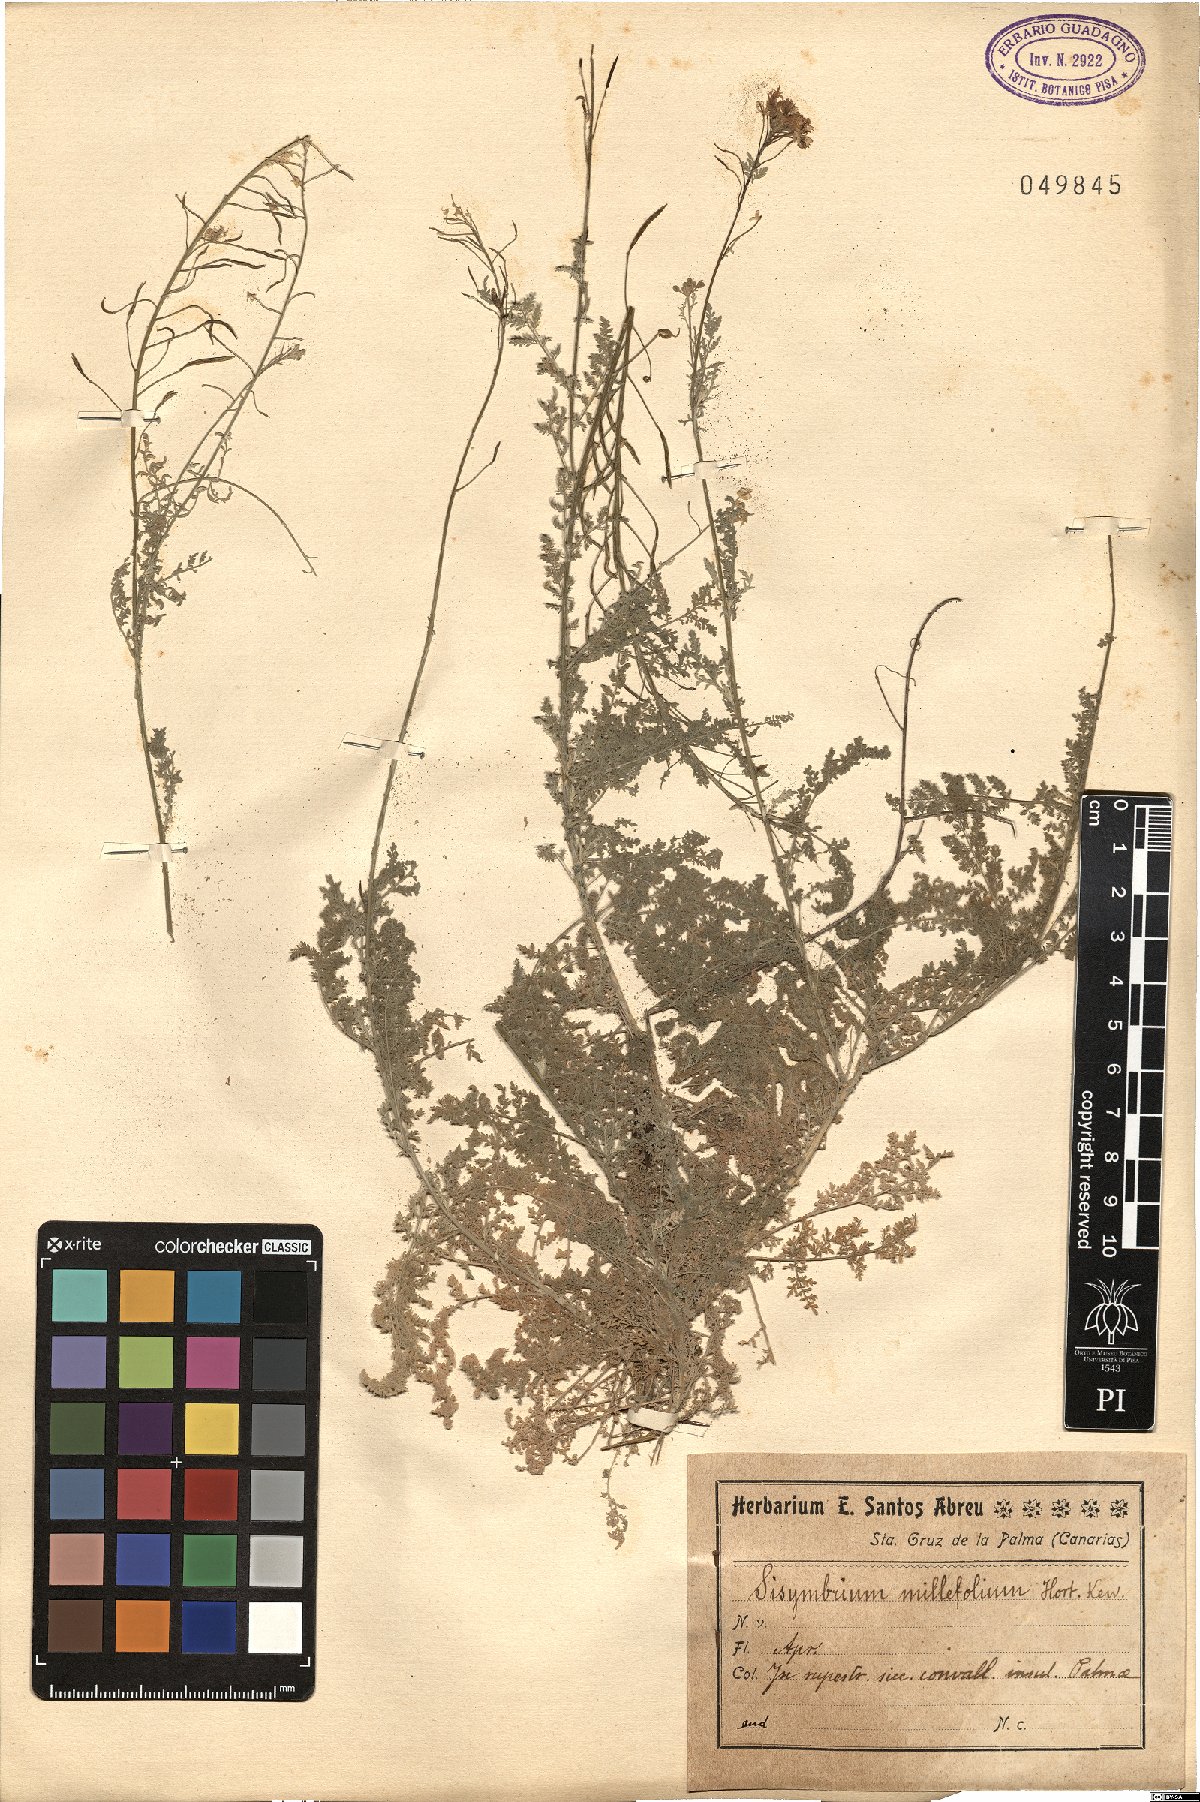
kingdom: Plantae
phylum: Tracheophyta
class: Magnoliopsida
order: Brassicales
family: Brassicaceae
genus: Hesperis
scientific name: Hesperis millefolia
